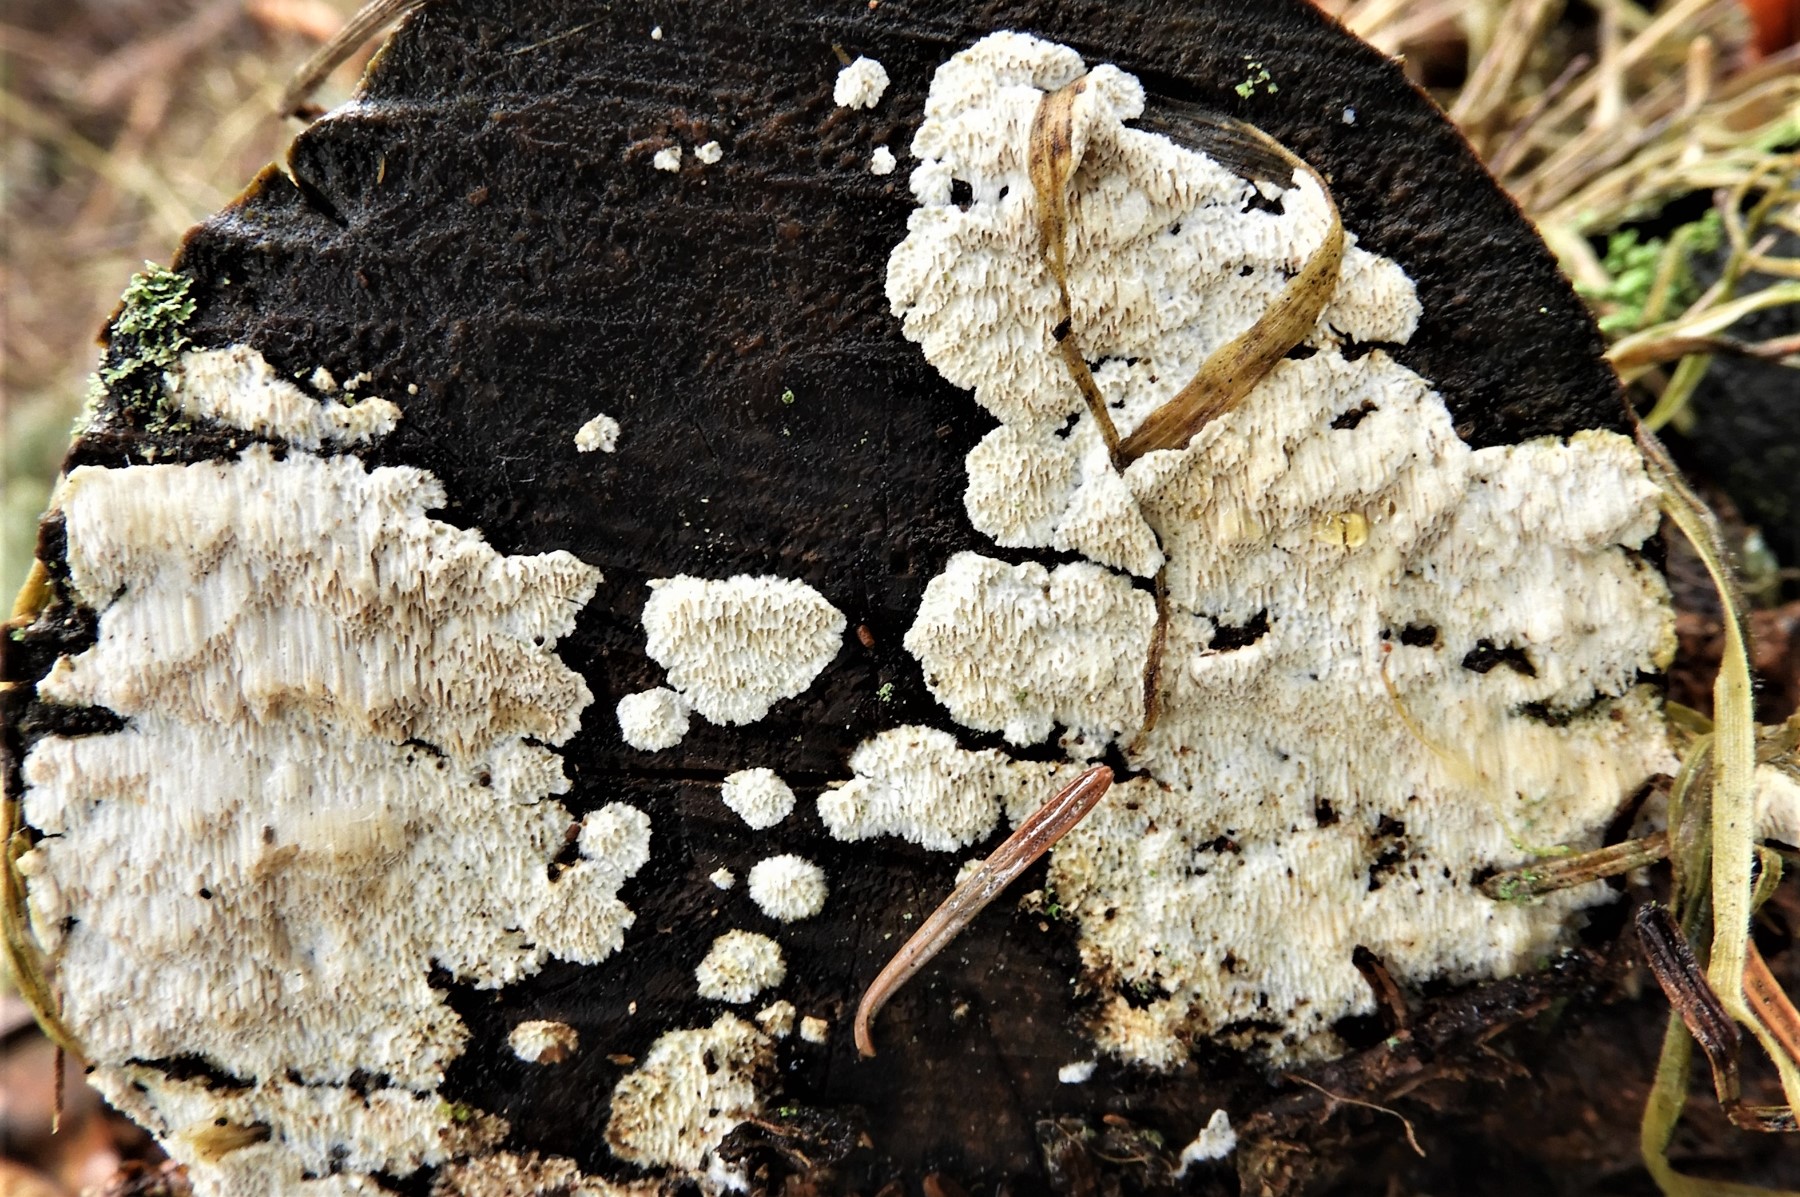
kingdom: Fungi
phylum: Basidiomycota
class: Agaricomycetes
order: Polyporales
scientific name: Polyporales
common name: poresvampordenen
